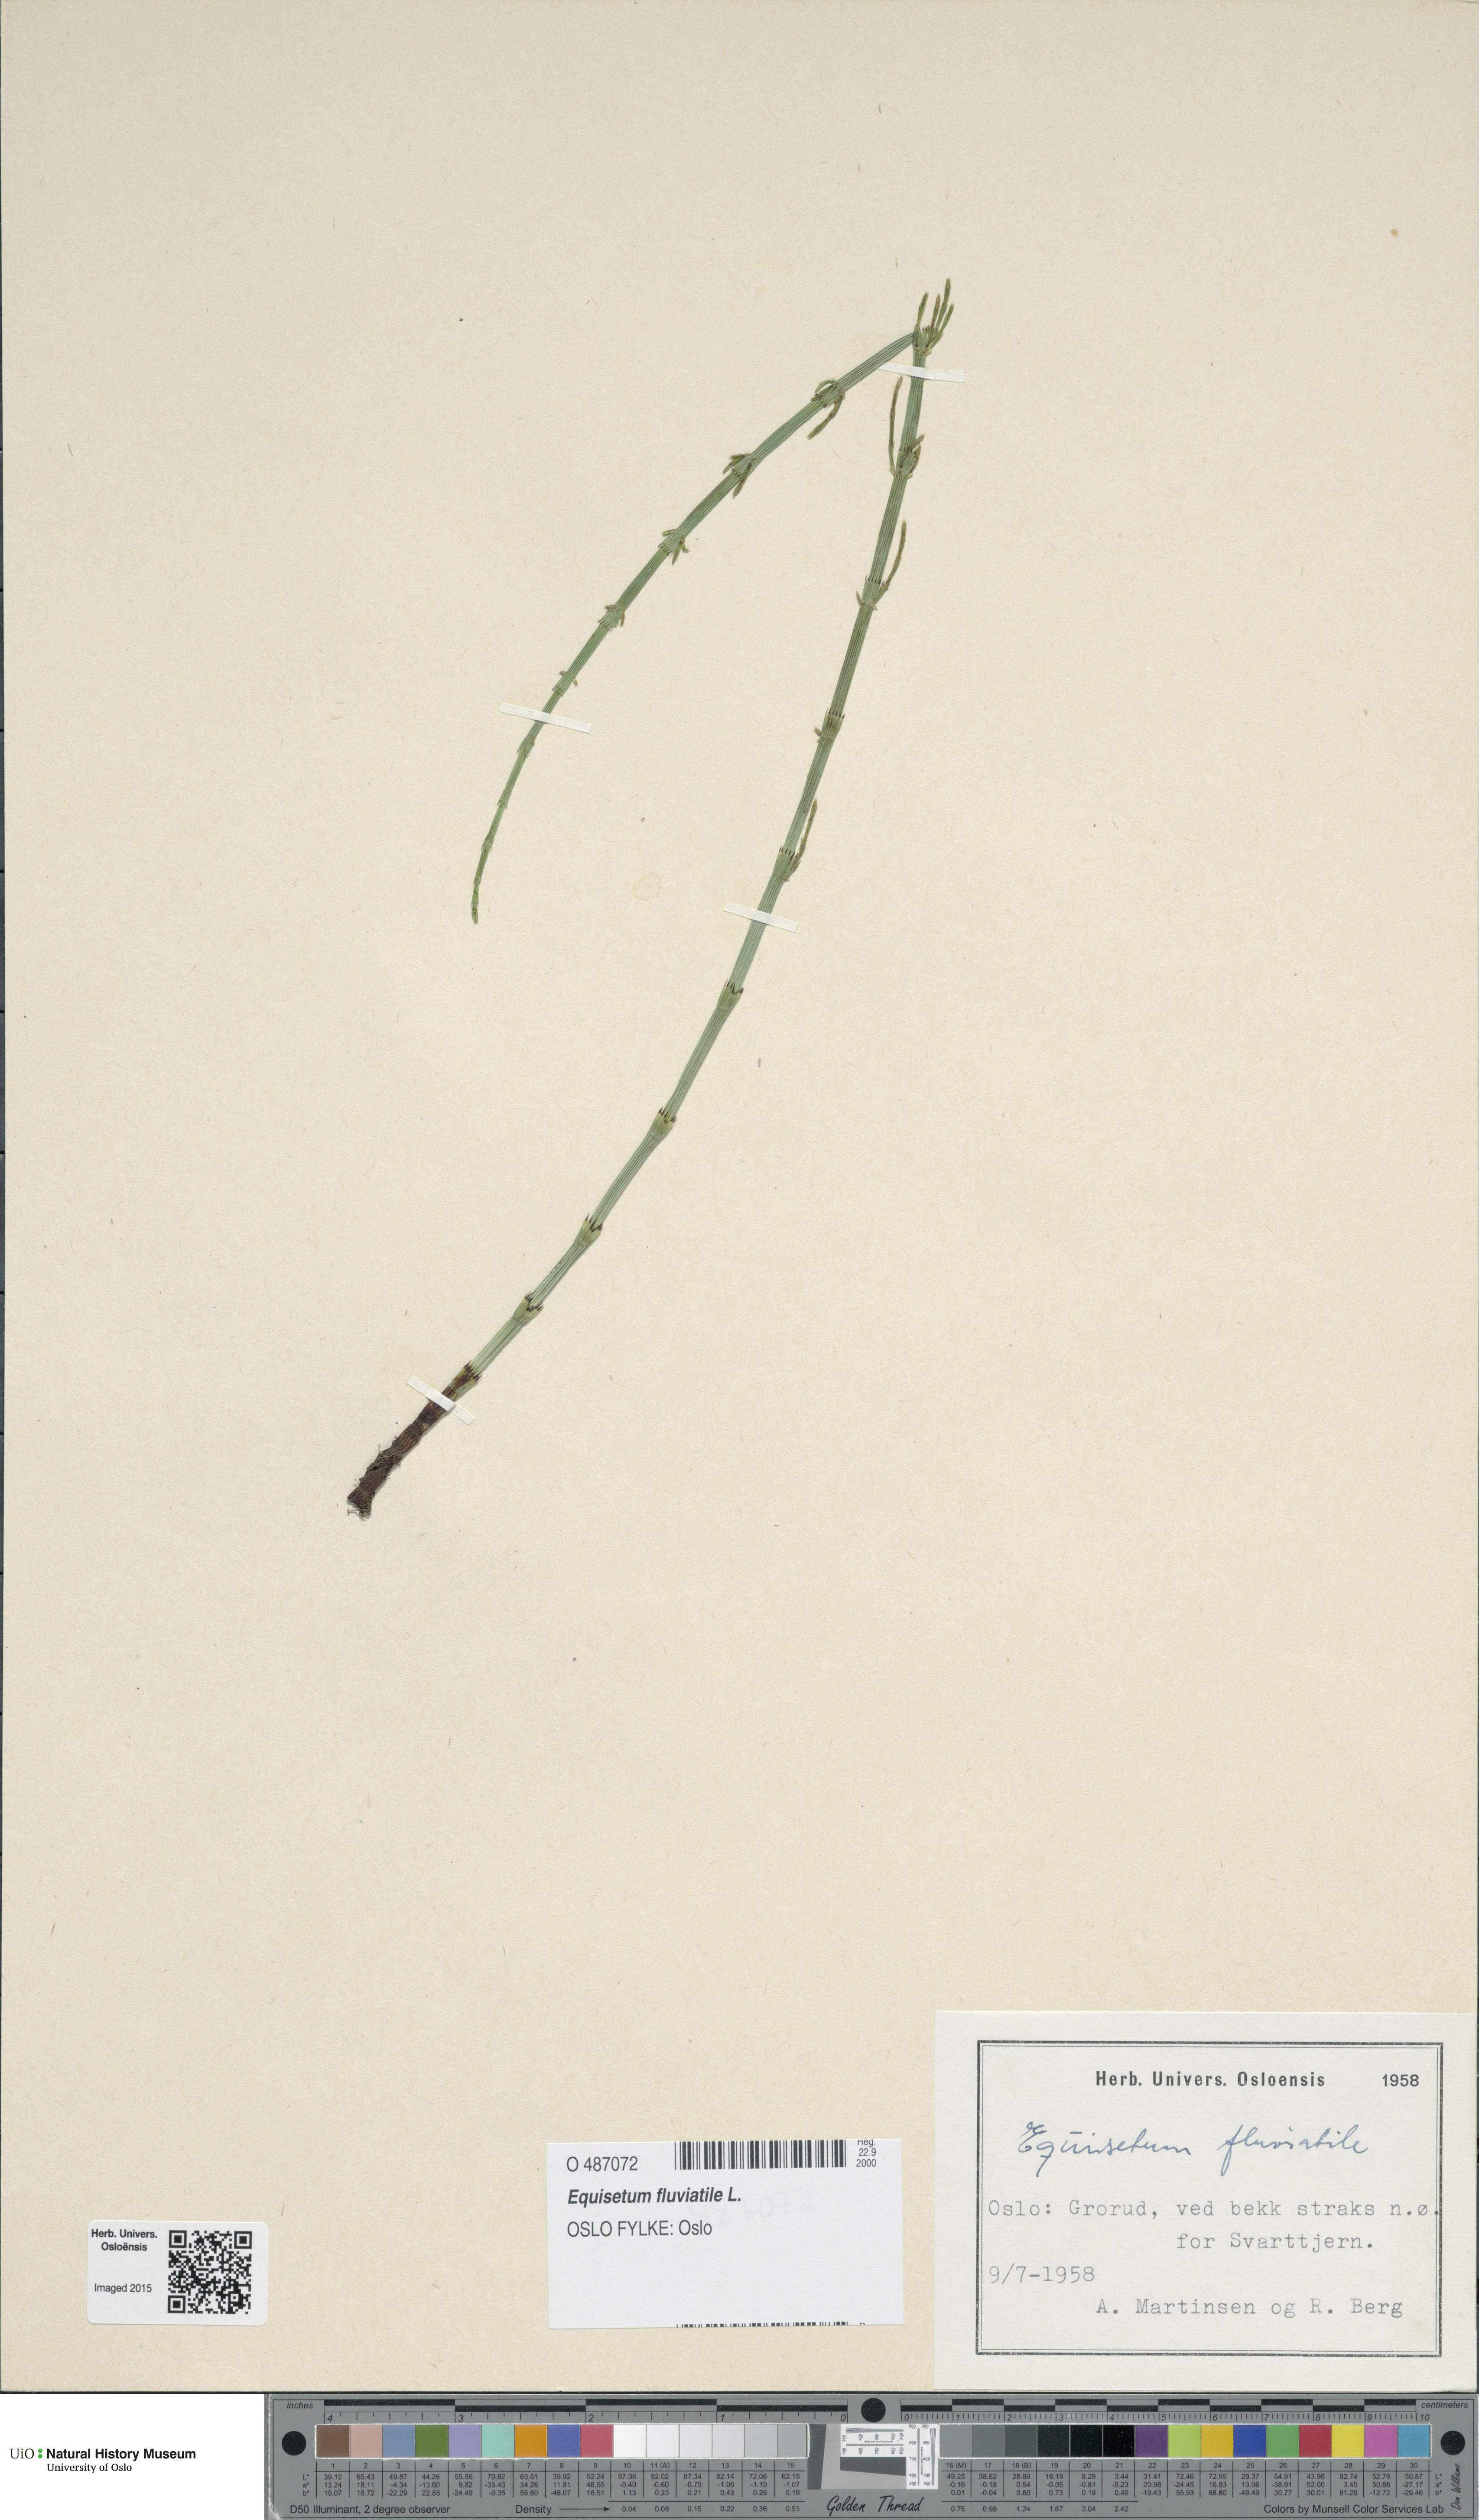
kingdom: Plantae
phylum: Tracheophyta
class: Polypodiopsida
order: Equisetales
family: Equisetaceae
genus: Equisetum
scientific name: Equisetum fluviatile
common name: Water horsetail
